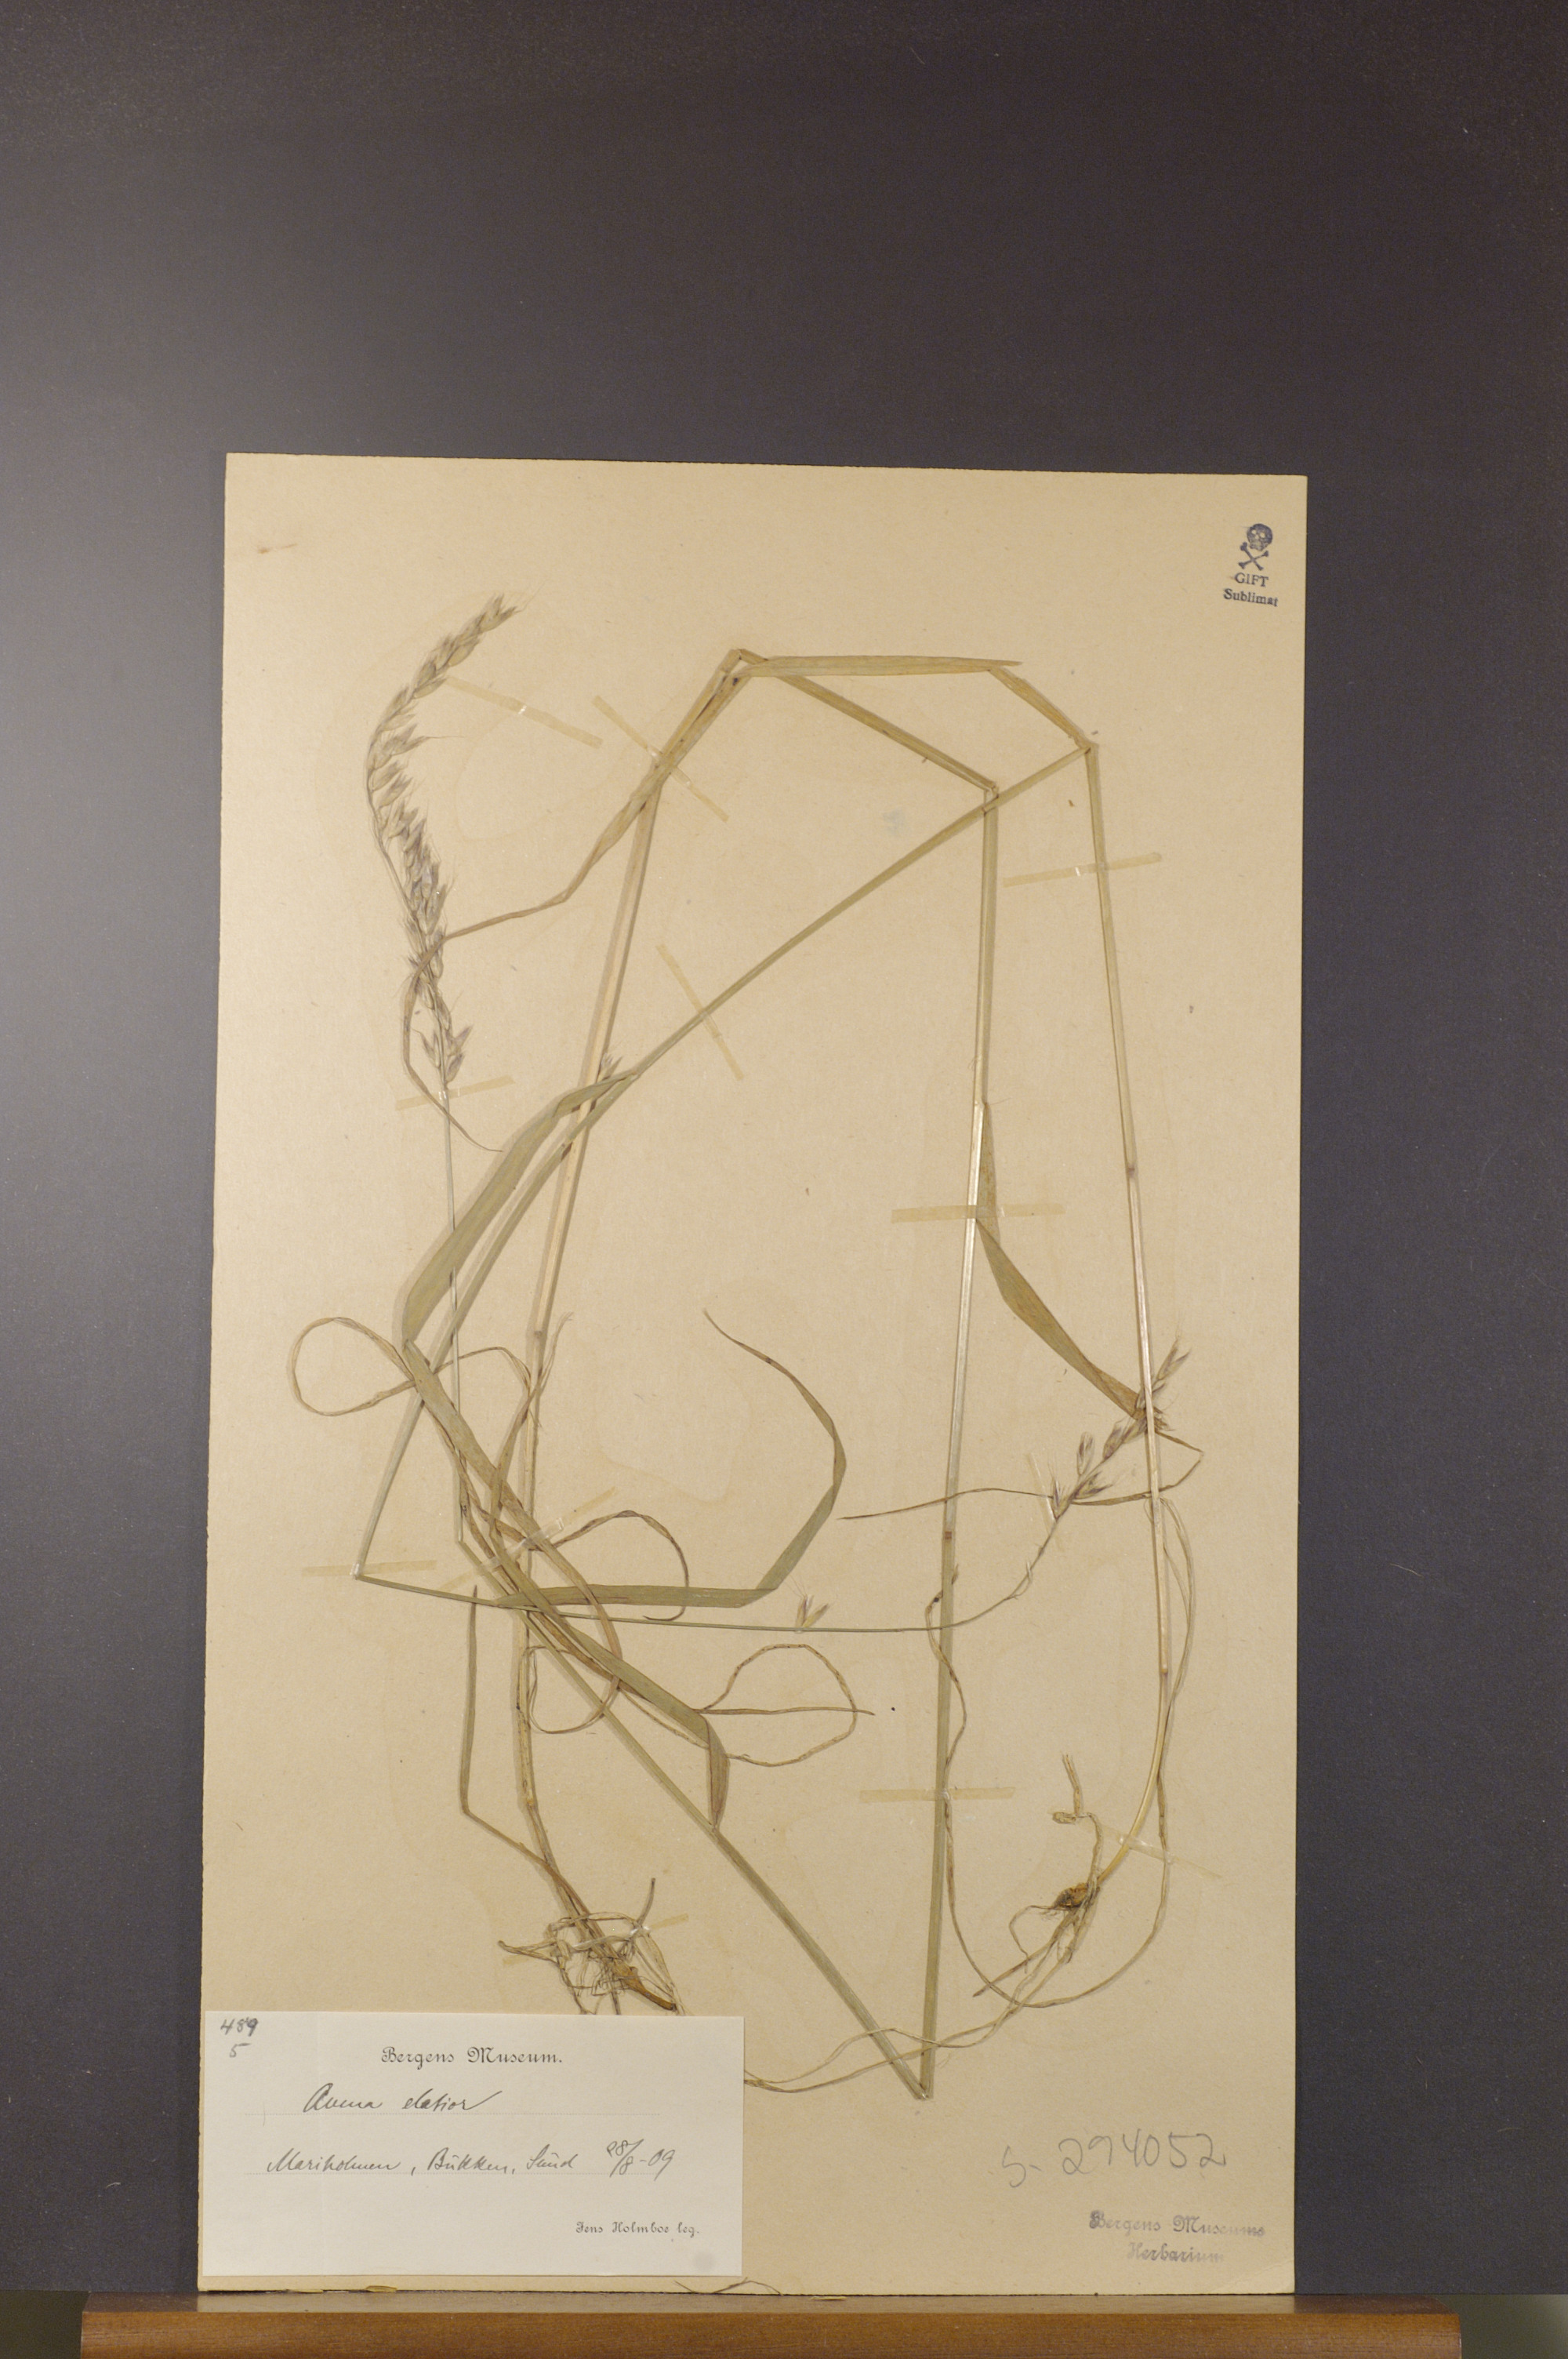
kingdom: Plantae
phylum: Tracheophyta
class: Liliopsida
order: Poales
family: Poaceae
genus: Arrhenatherum
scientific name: Arrhenatherum elatius
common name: Tall oatgrass
